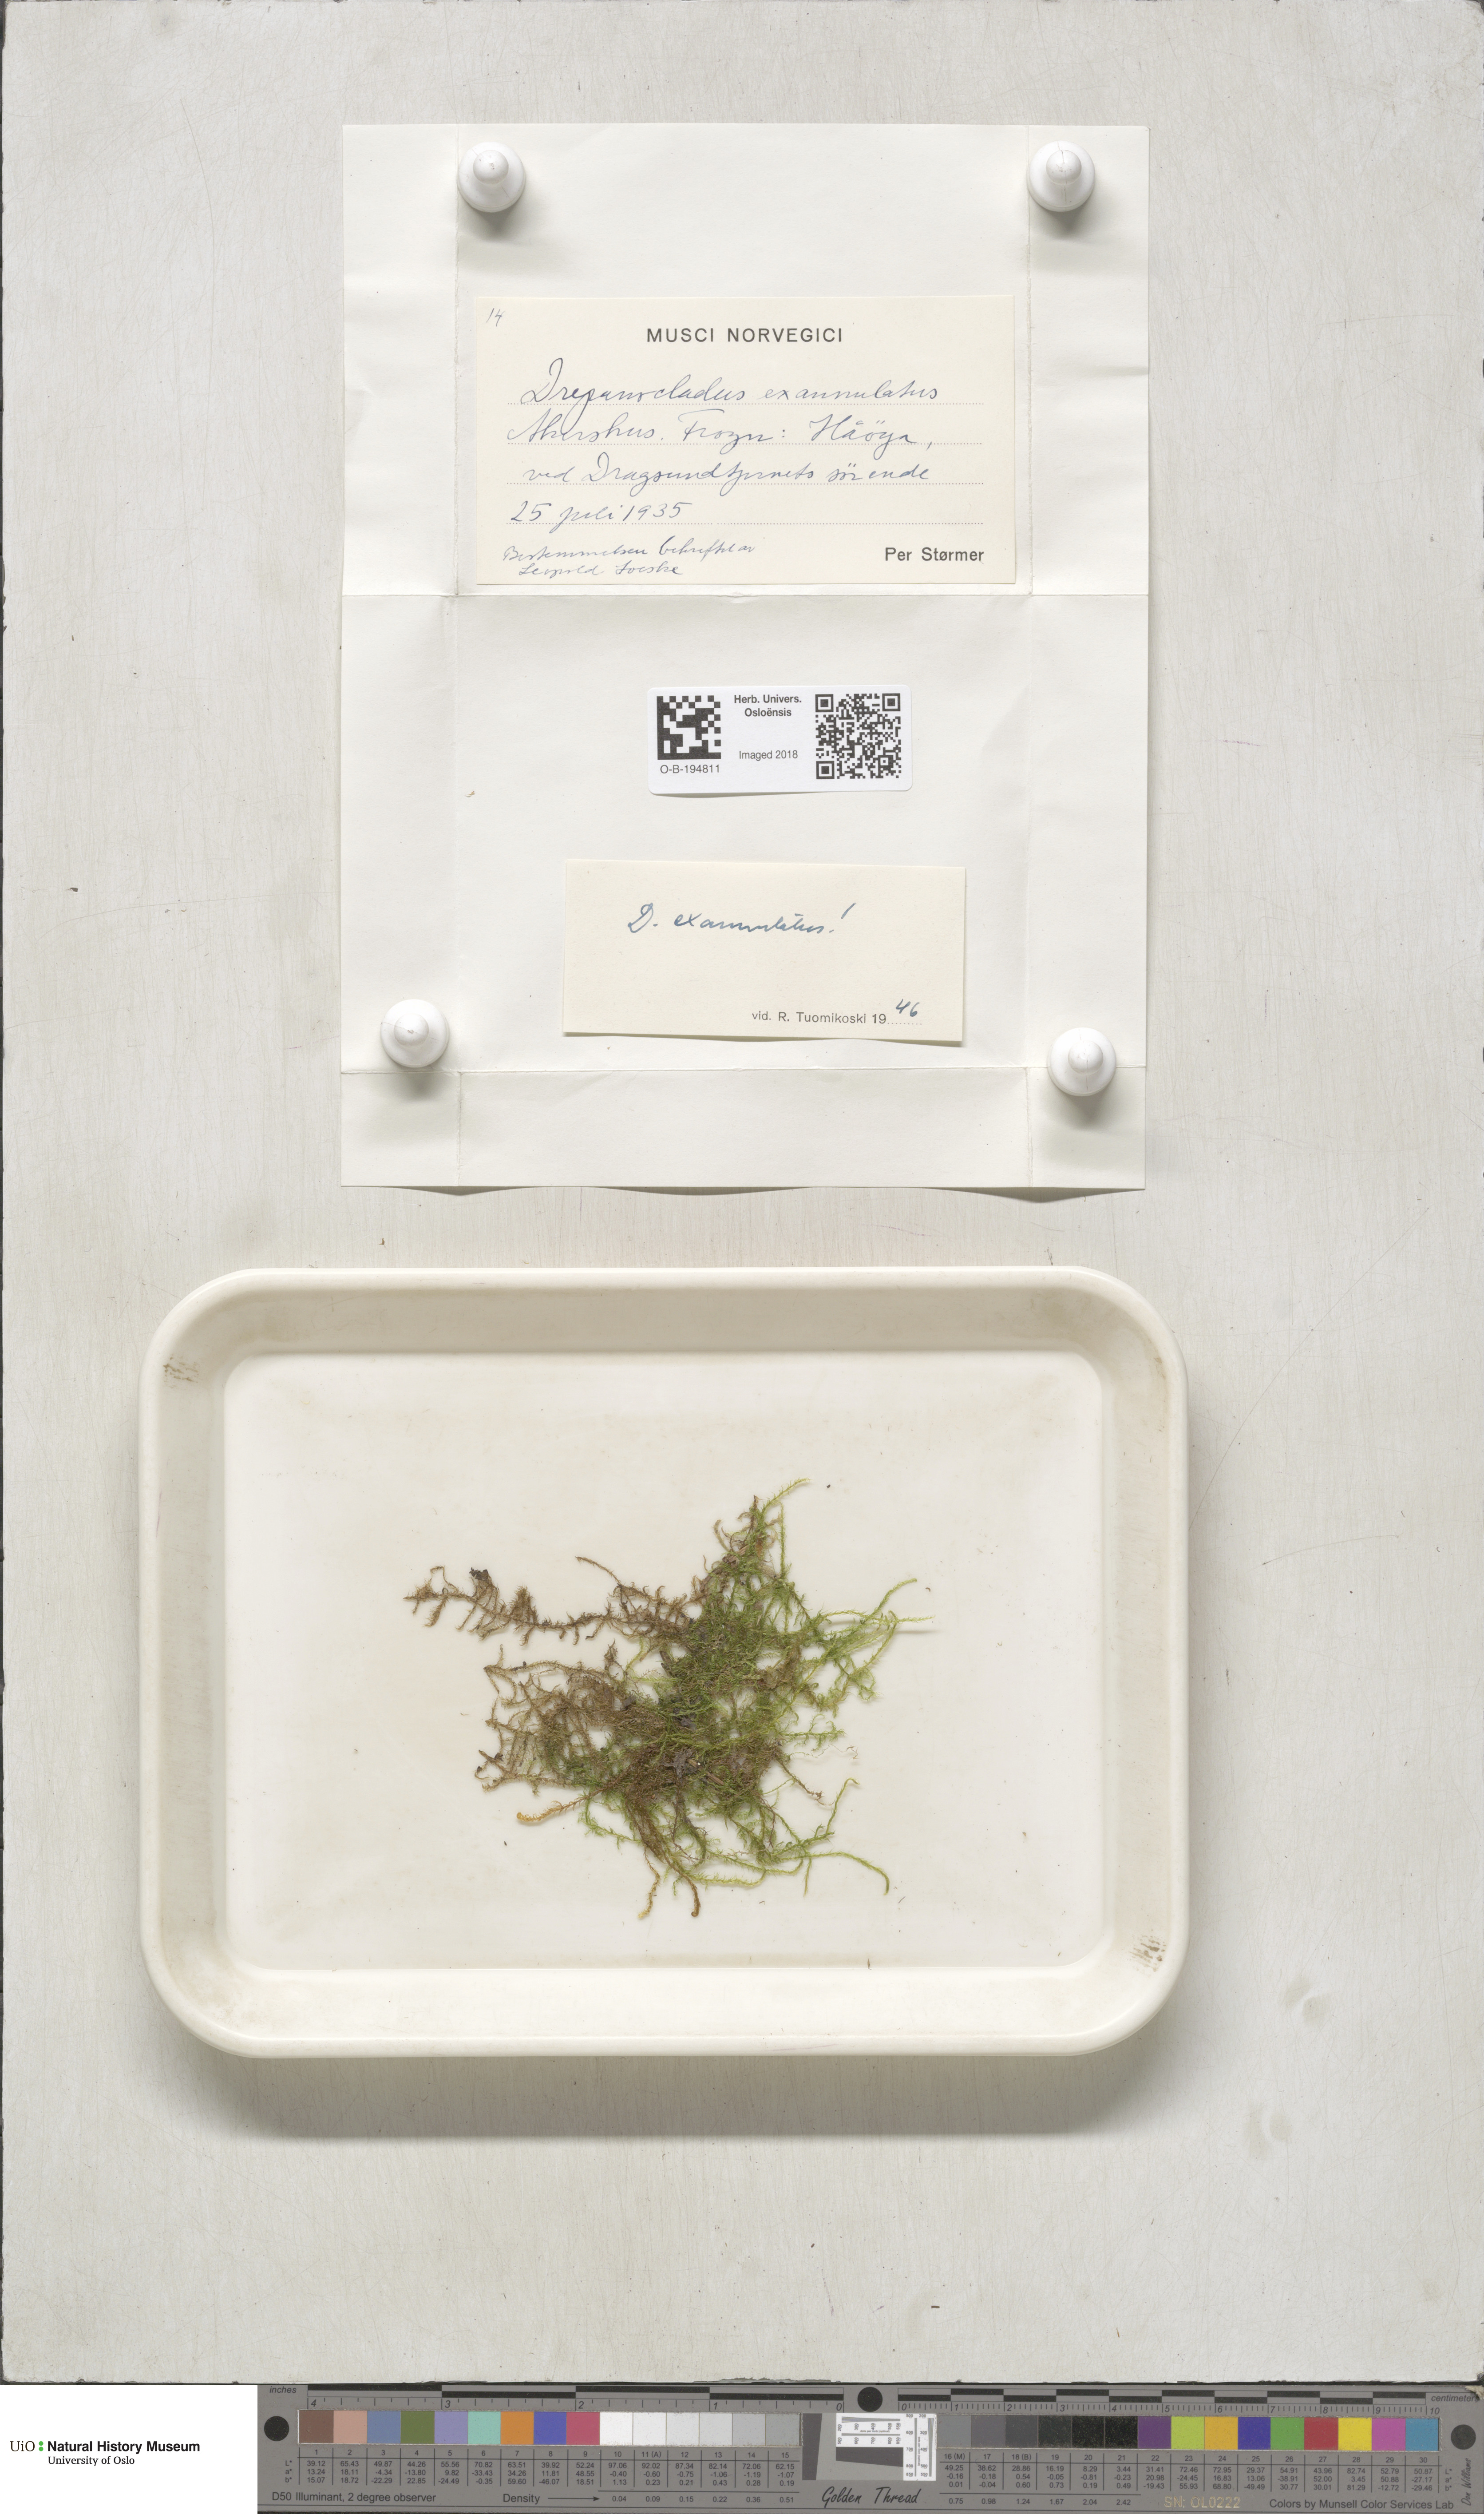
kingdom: Plantae
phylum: Bryophyta
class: Bryopsida
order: Hypnales
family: Calliergonaceae
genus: Sarmentypnum
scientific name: Sarmentypnum exannulatum
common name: Ringless spoon moss
